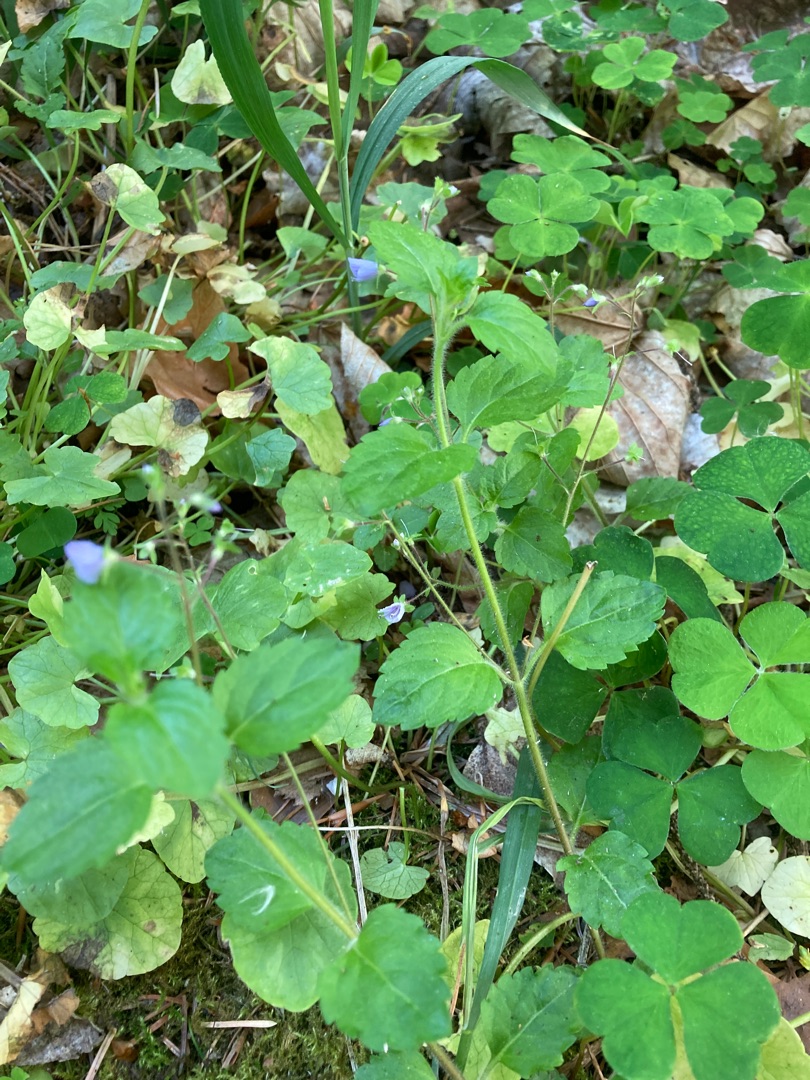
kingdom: Plantae
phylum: Tracheophyta
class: Magnoliopsida
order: Lamiales
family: Plantaginaceae
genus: Veronica
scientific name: Veronica montana
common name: Bjerg-ærenpris
